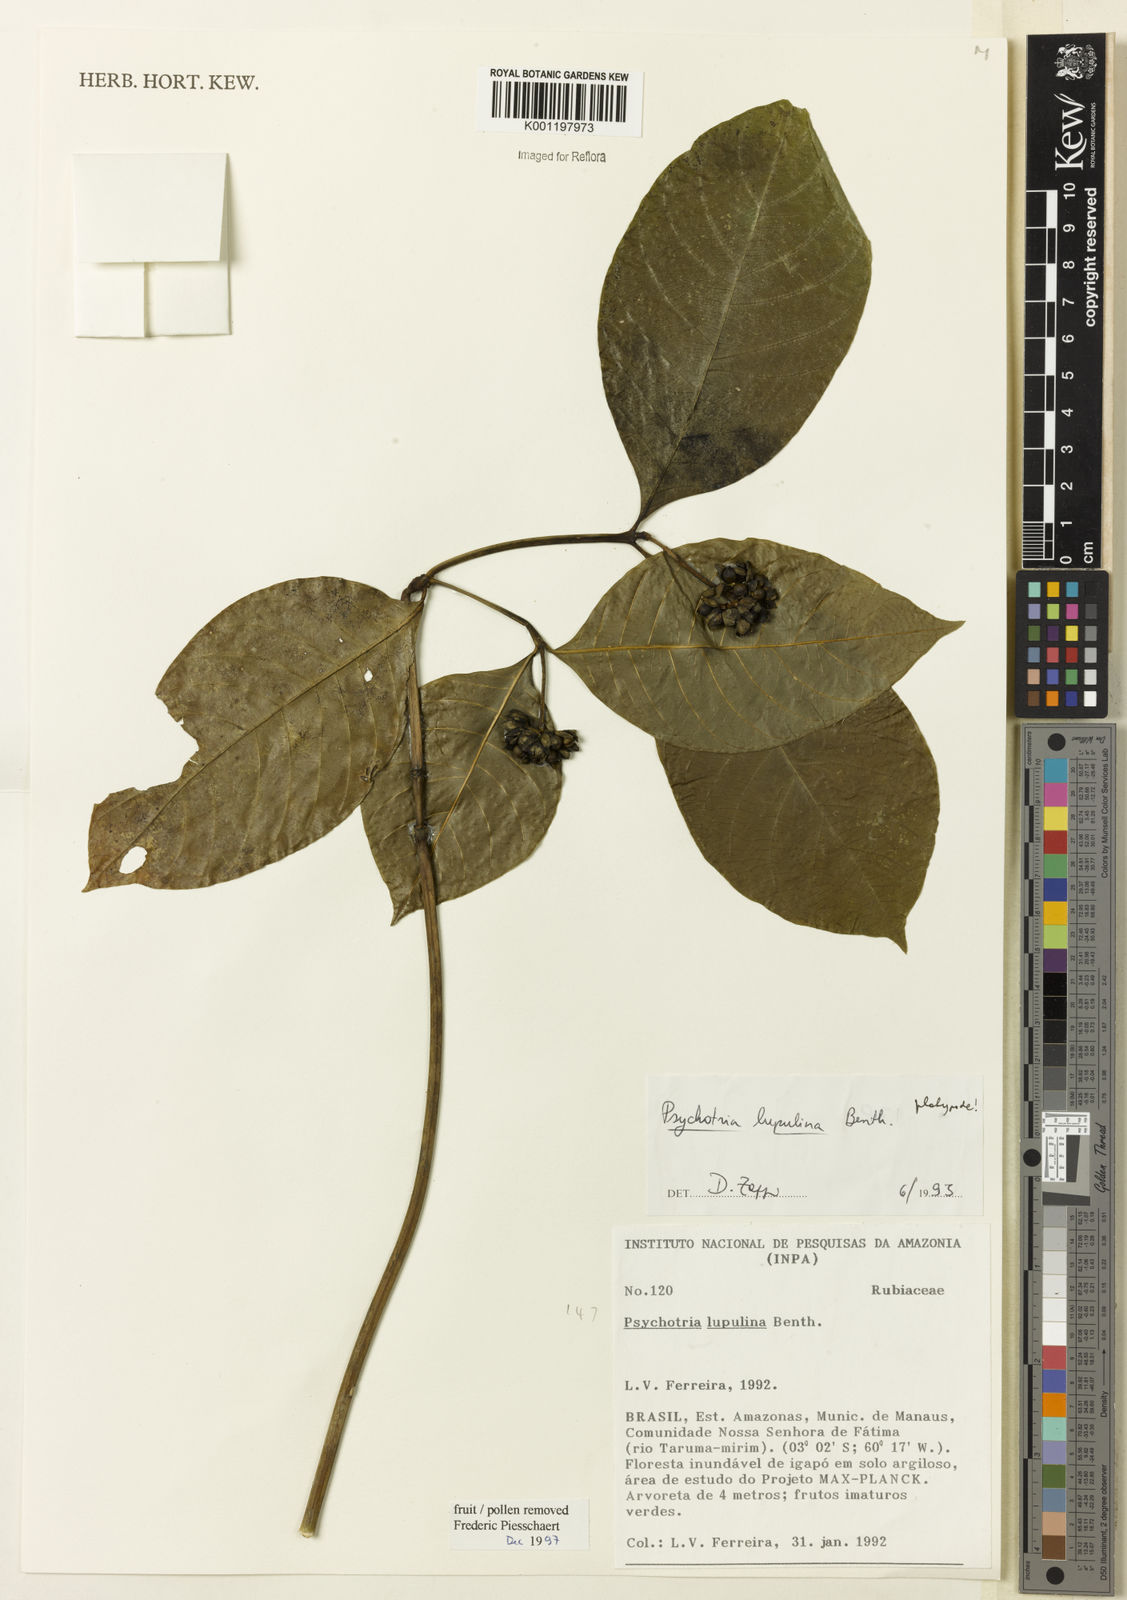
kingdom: Plantae
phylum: Tracheophyta
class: Magnoliopsida
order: Gentianales
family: Rubiaceae
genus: Palicourea
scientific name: Palicourea dichotoma
